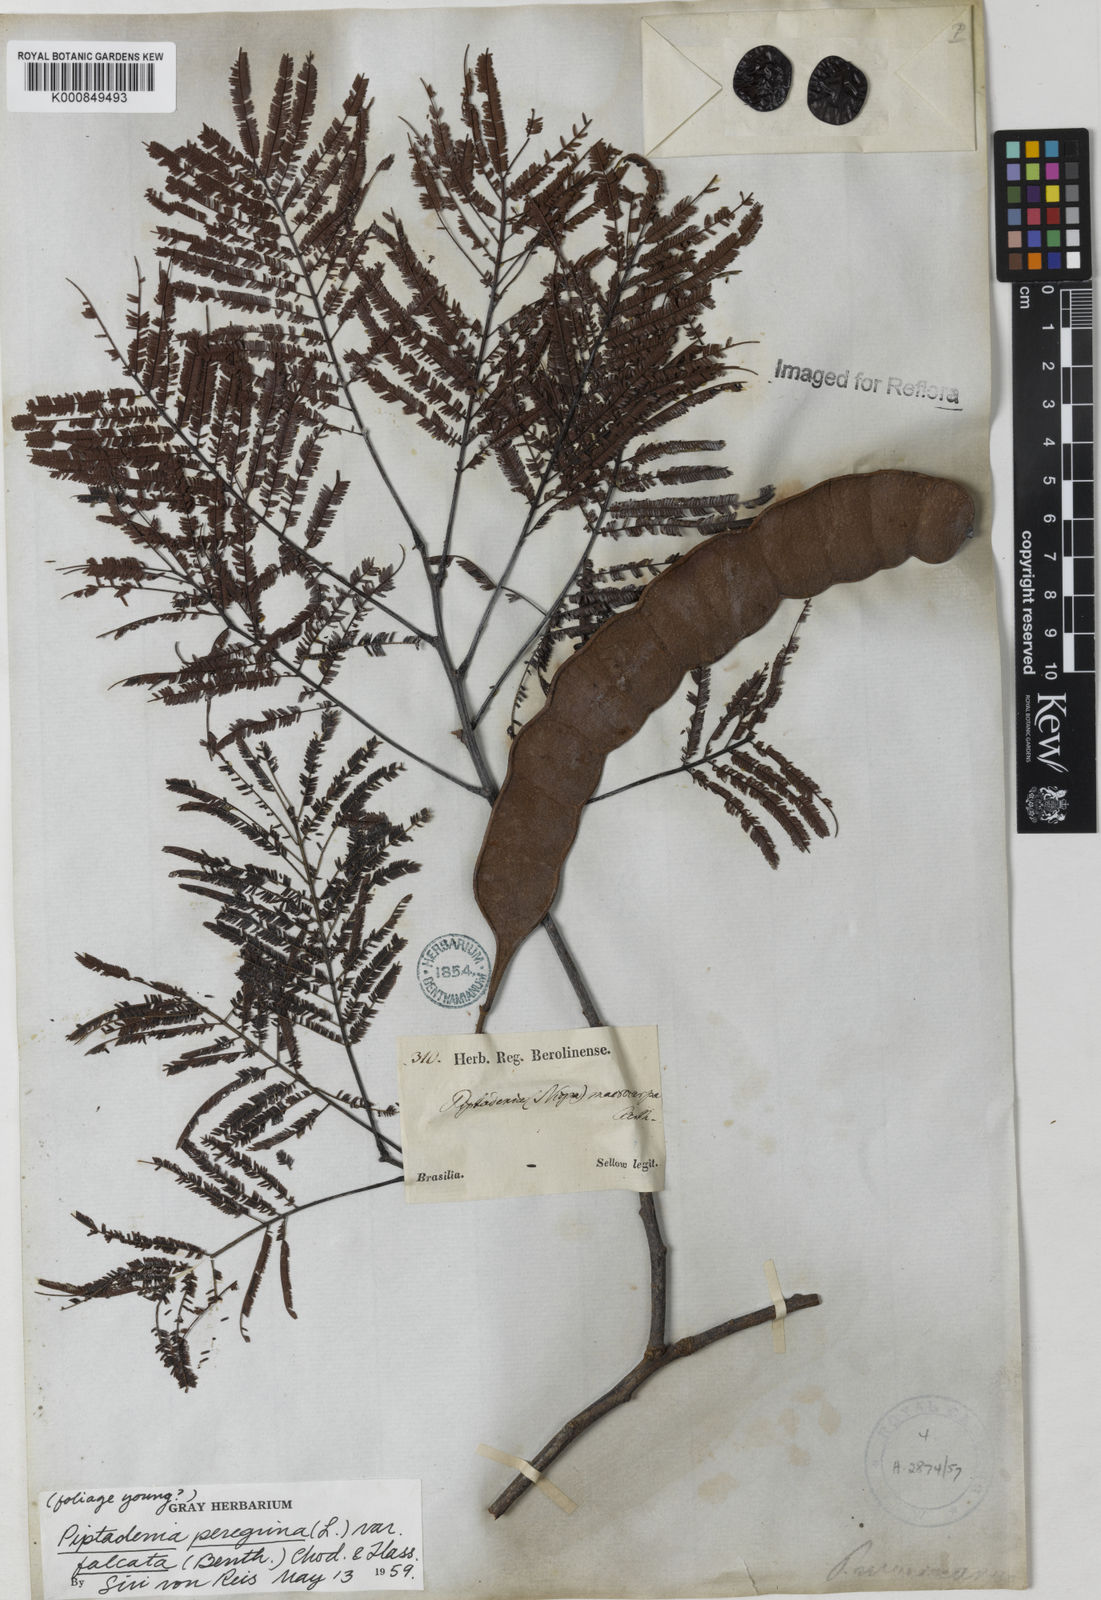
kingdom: Plantae
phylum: Tracheophyta
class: Magnoliopsida
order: Fabales
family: Fabaceae
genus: Anadenanthera
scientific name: Anadenanthera peregrina
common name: Cohoba
